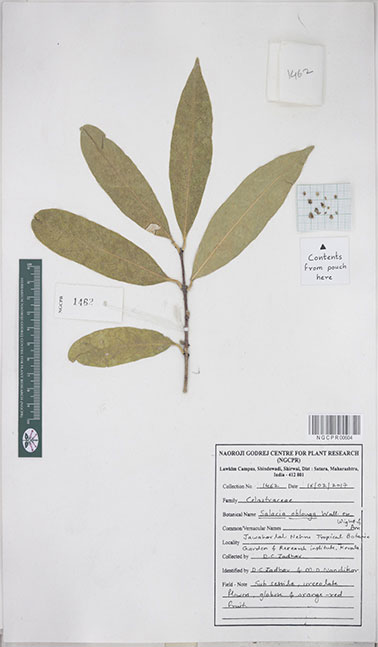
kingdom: Plantae
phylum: Tracheophyta
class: Magnoliopsida
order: Celastrales
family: Celastraceae
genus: Salacia
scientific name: Salacia oblonga
